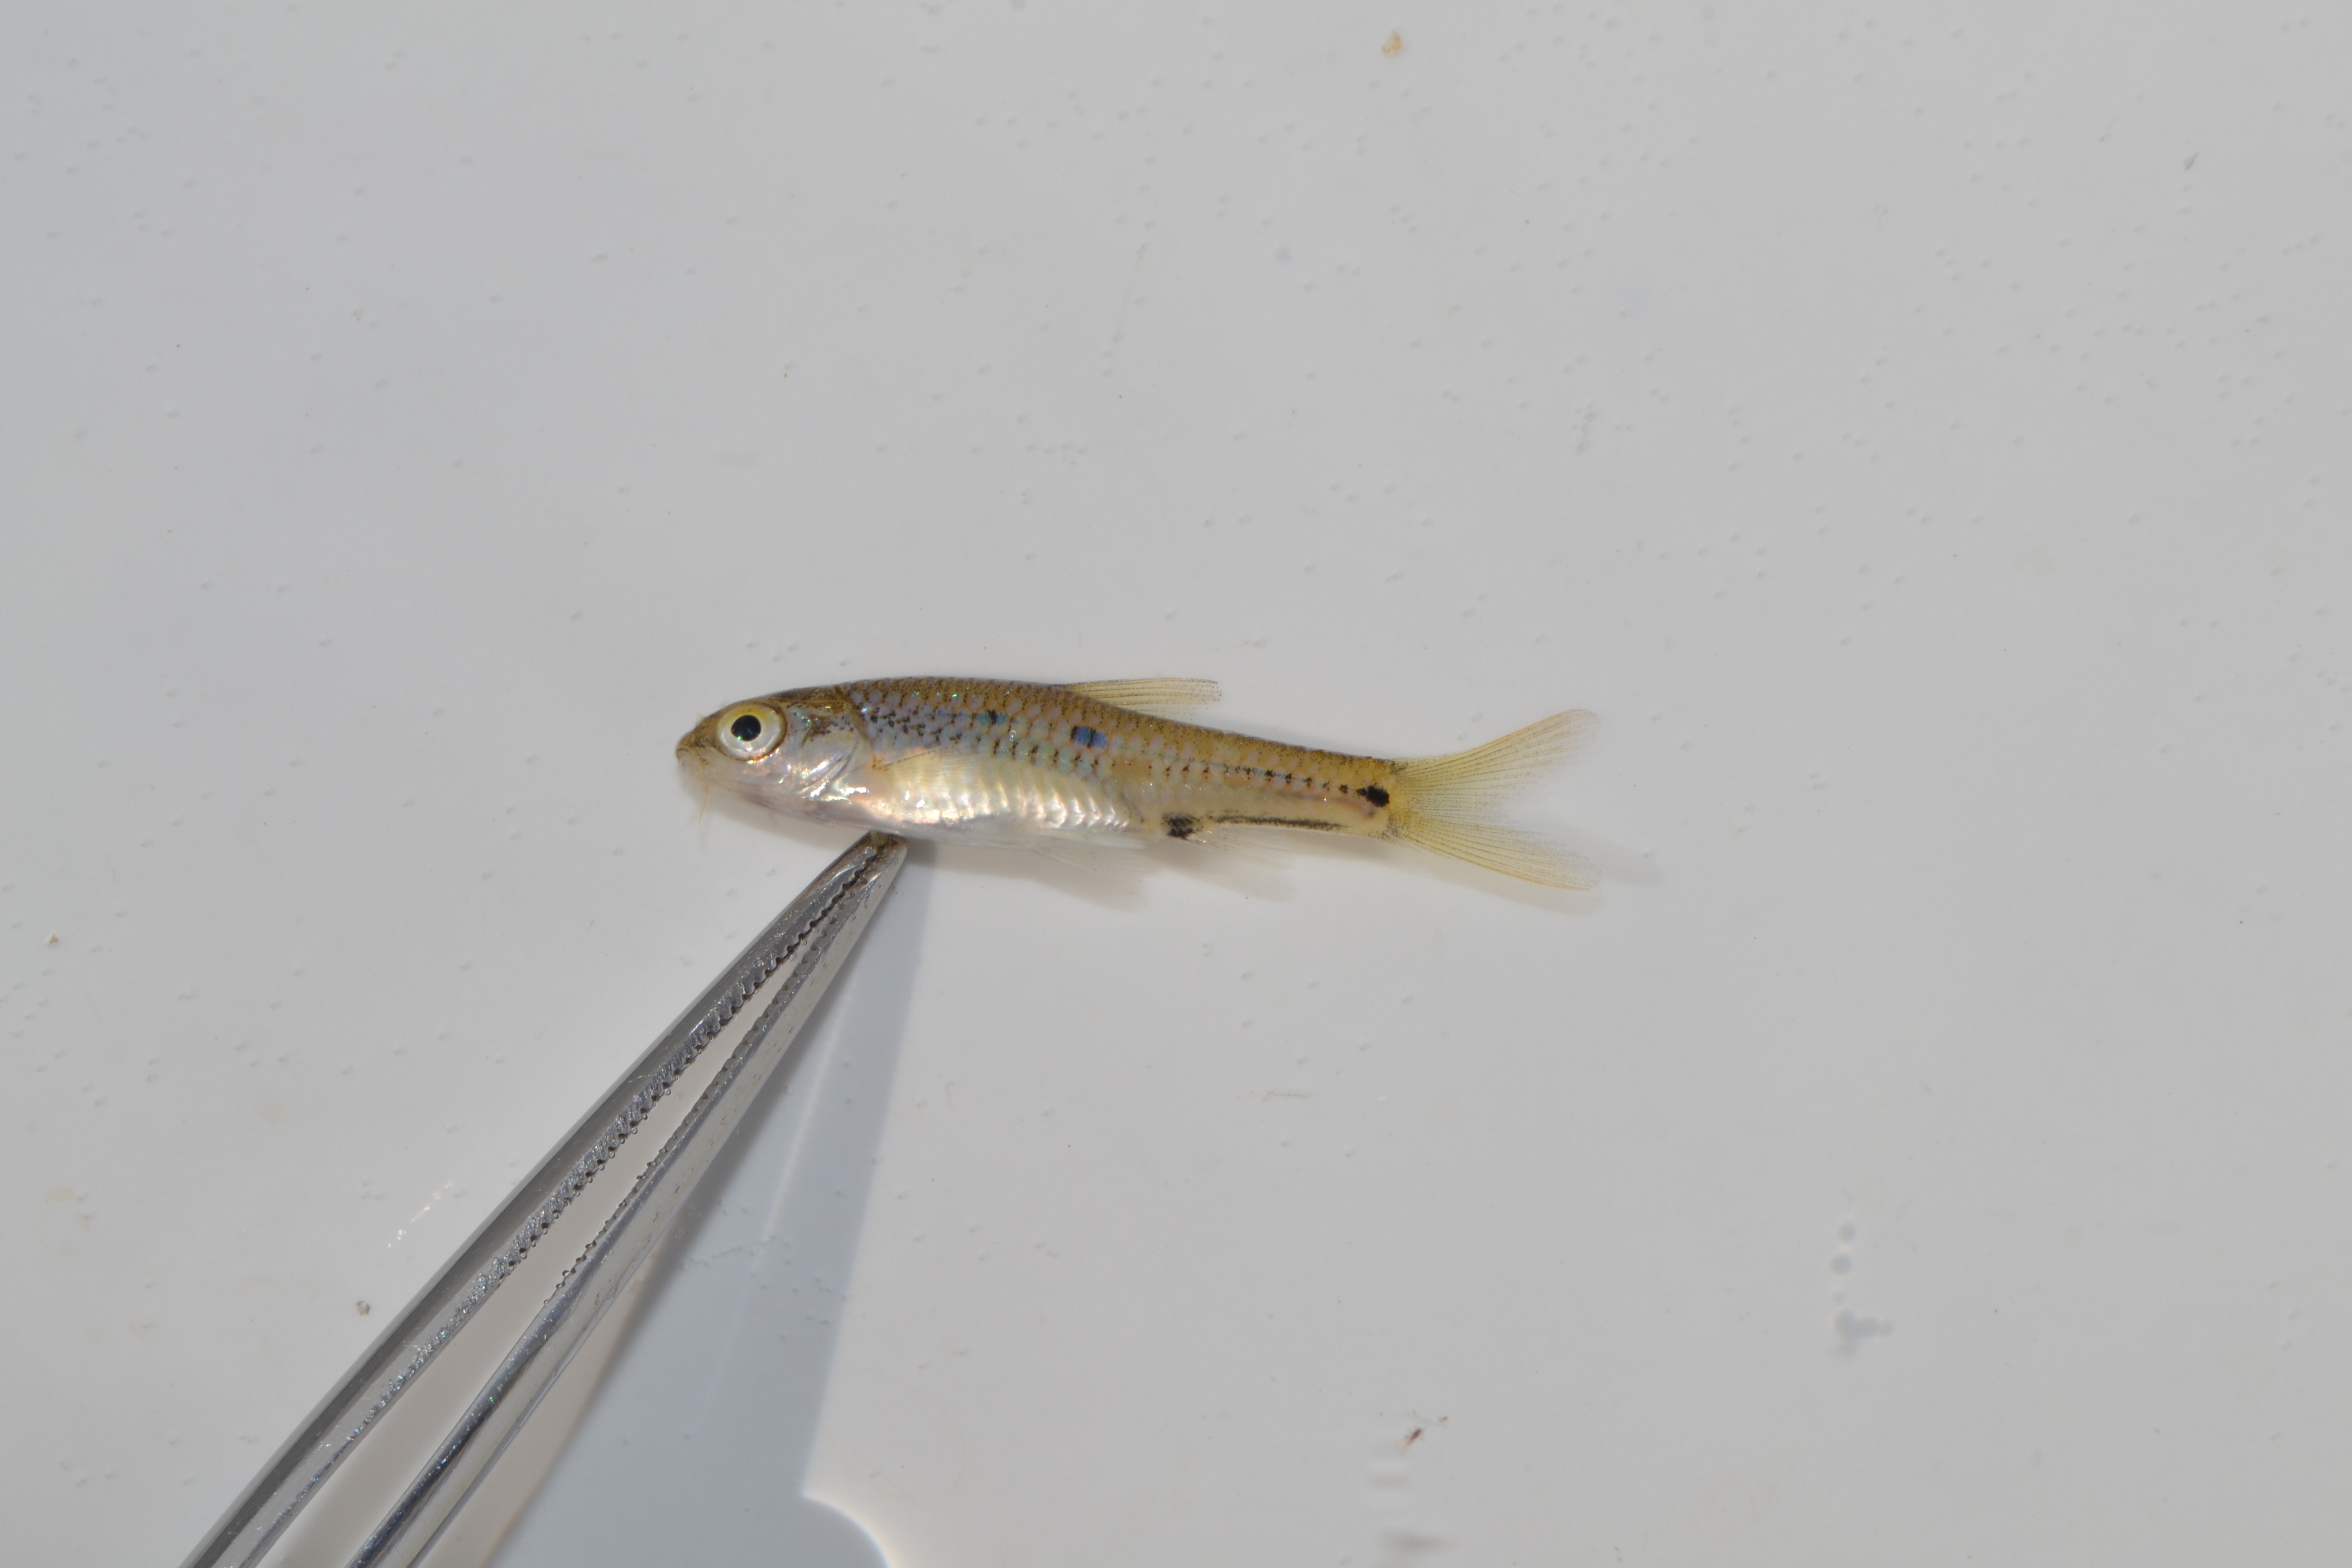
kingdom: Animalia
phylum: Chordata
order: Cypriniformes
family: Cyprinidae
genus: Barbus
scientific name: Barbus
